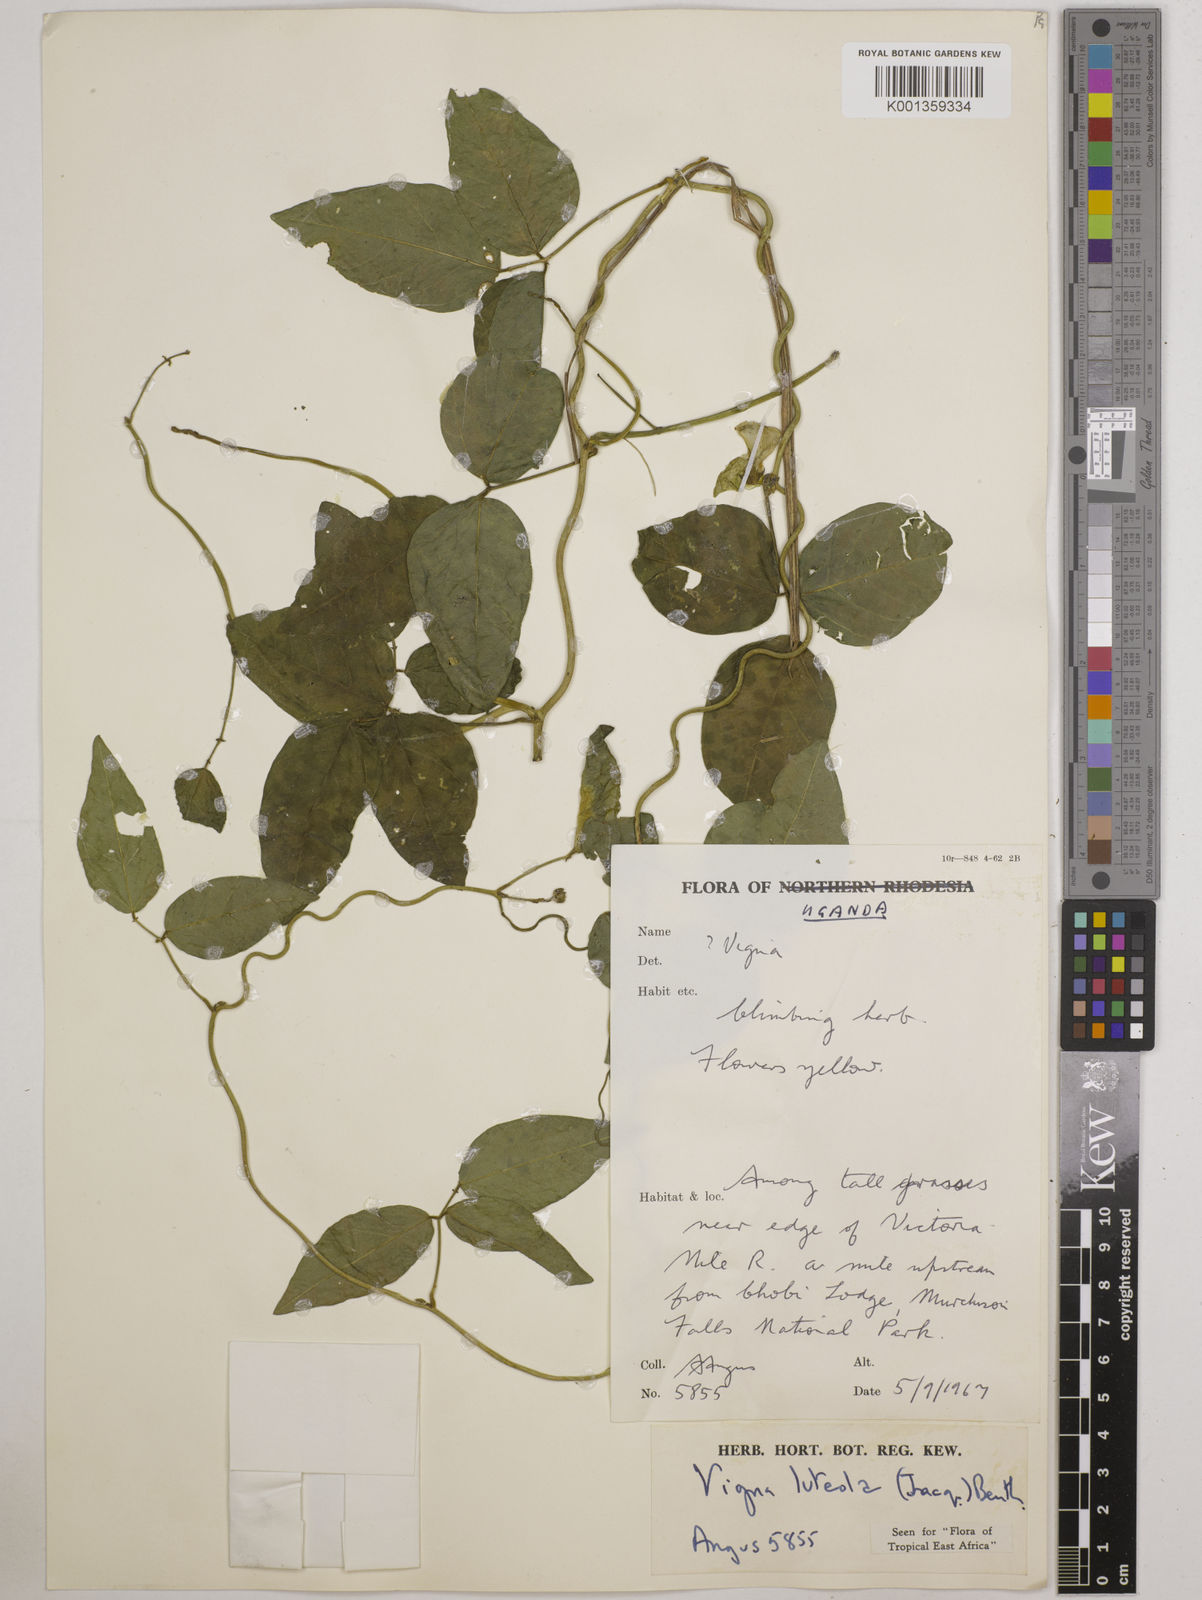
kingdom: Plantae
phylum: Tracheophyta
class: Magnoliopsida
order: Fabales
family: Fabaceae
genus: Vigna
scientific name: Vigna luteola
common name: Hairypod cowpea
